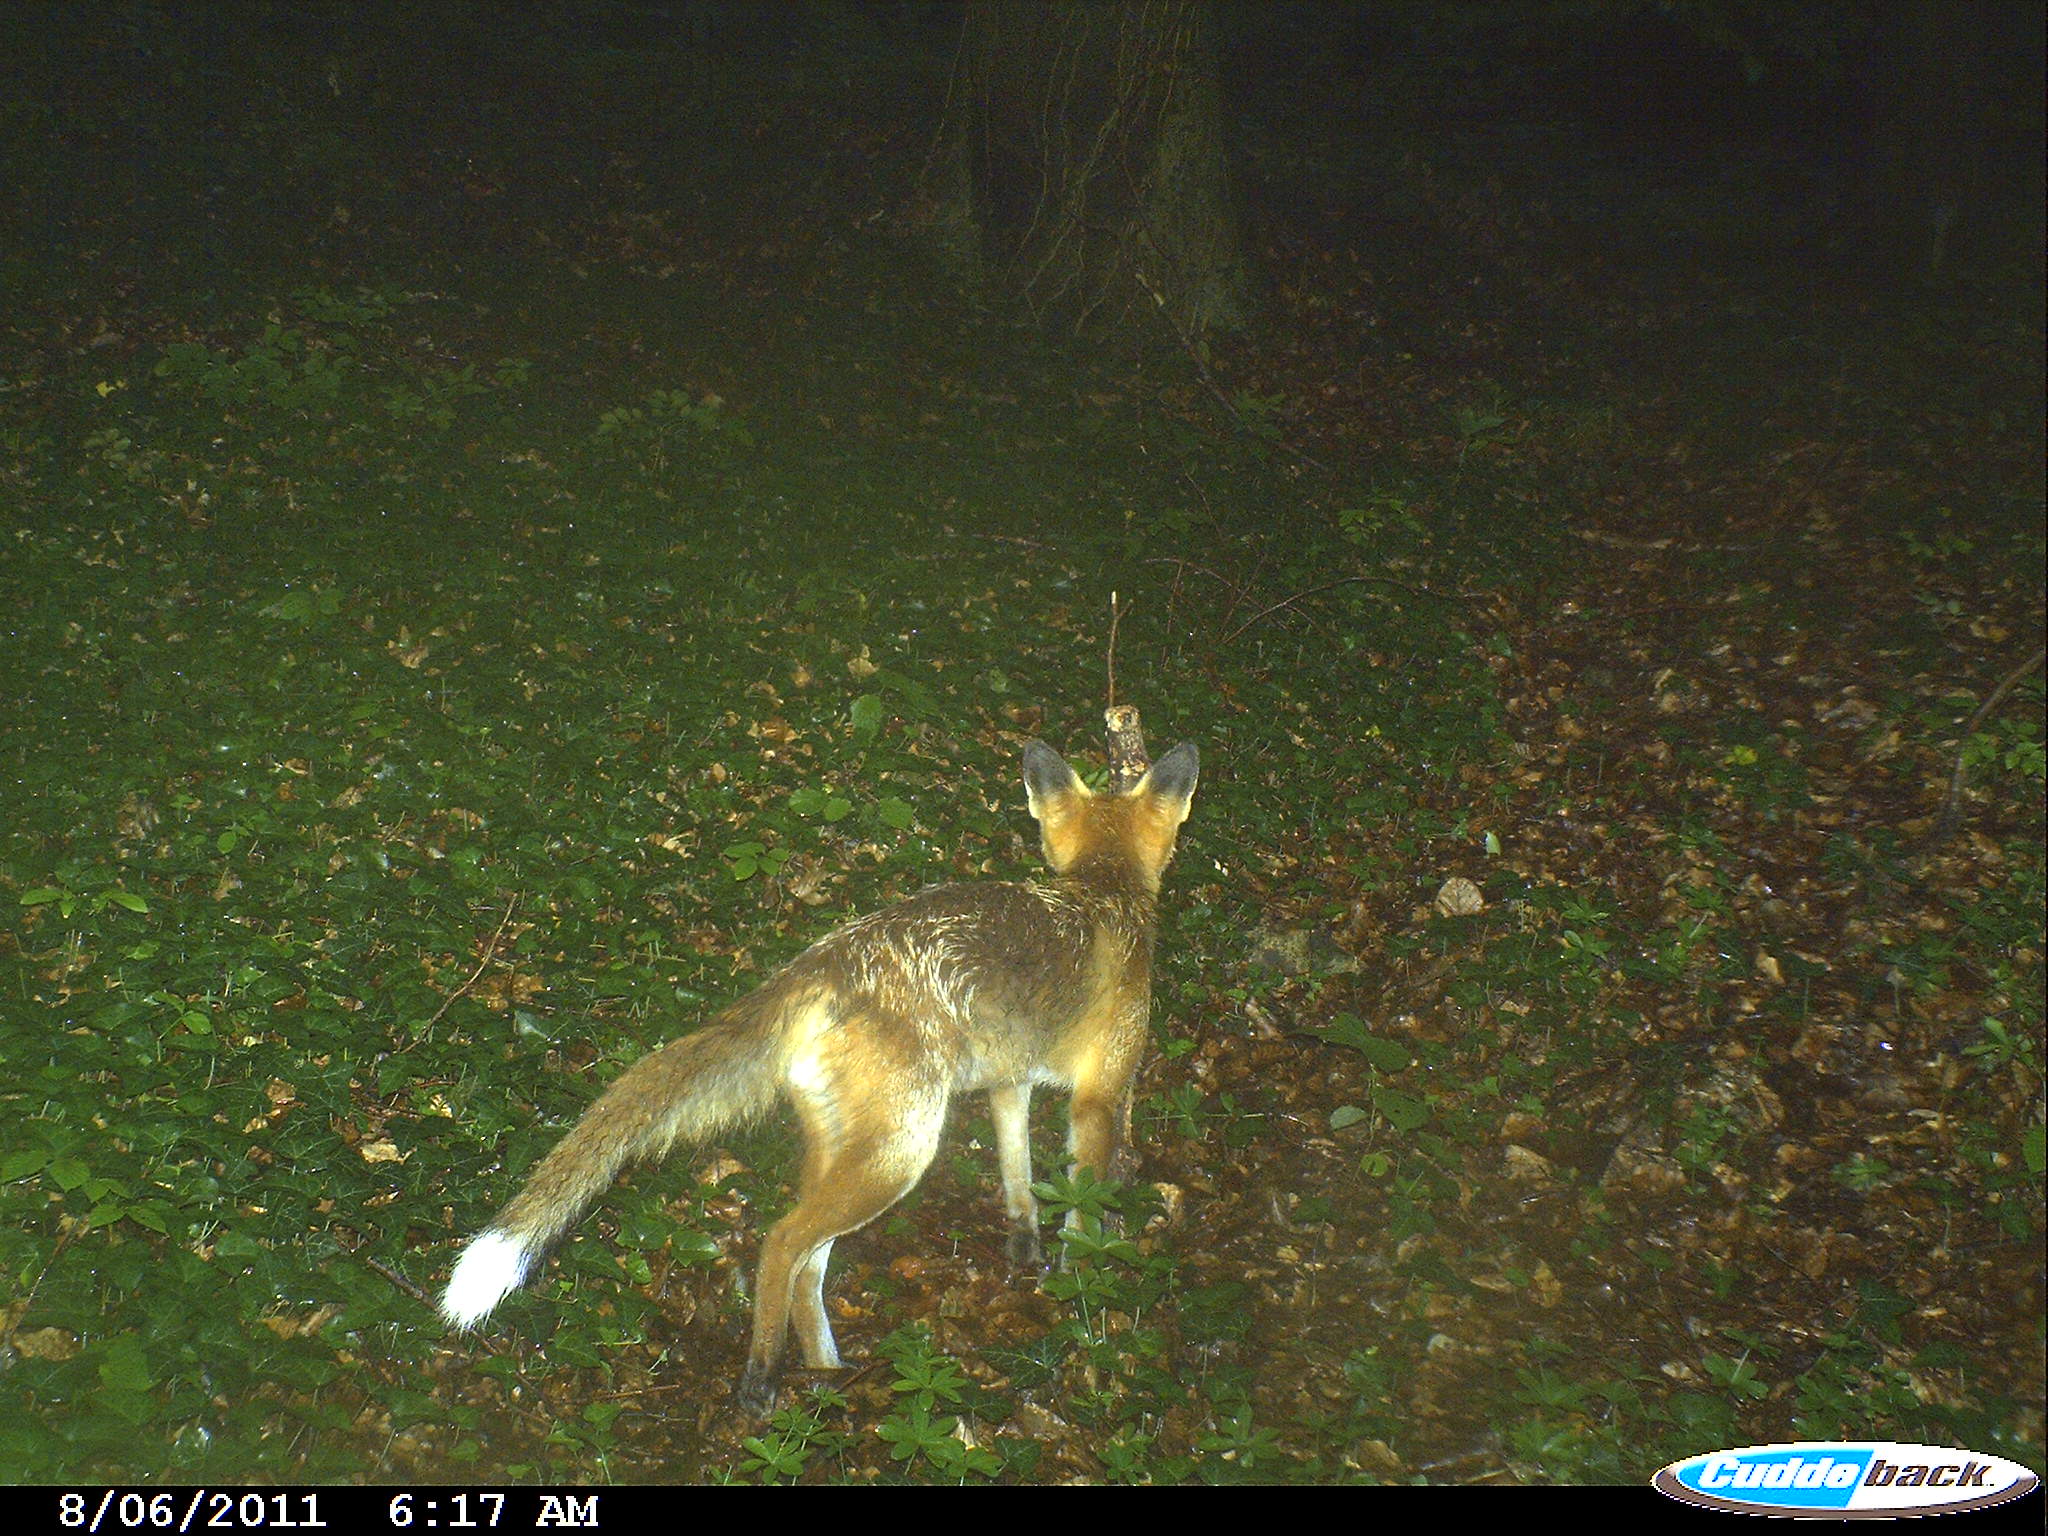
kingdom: Animalia
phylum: Chordata
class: Mammalia
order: Carnivora
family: Canidae
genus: Vulpes
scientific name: Vulpes vulpes
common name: Red fox
